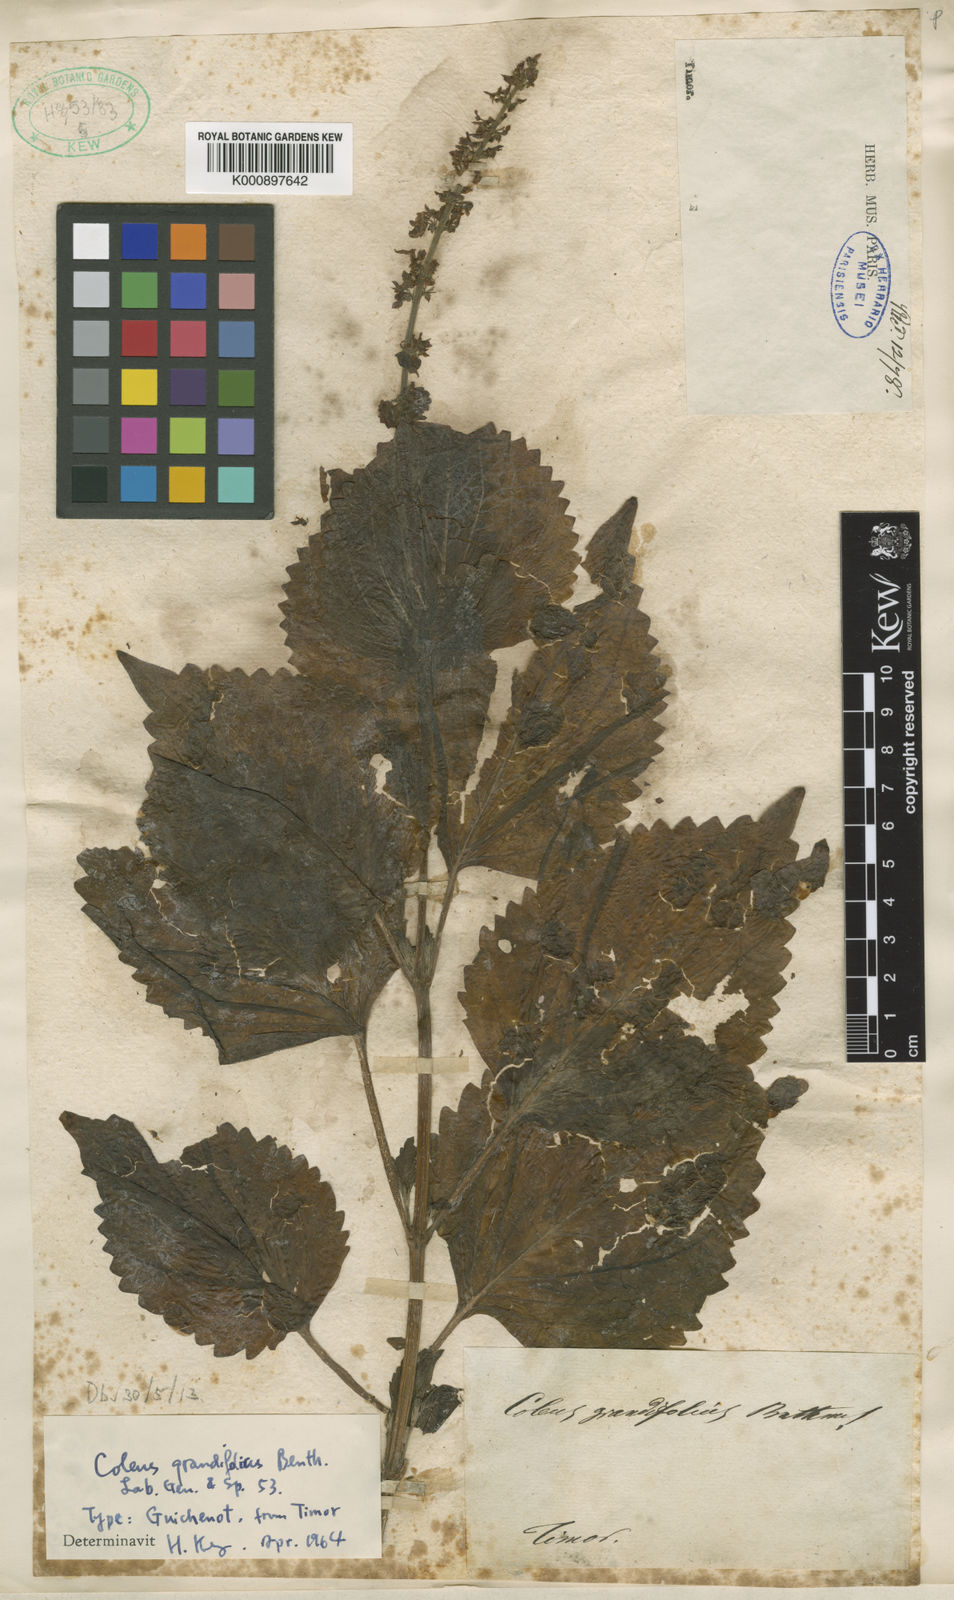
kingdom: Plantae
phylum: Tracheophyta
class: Magnoliopsida
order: Lamiales
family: Lamiaceae
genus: Isodon
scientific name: Isodon grandifolius
